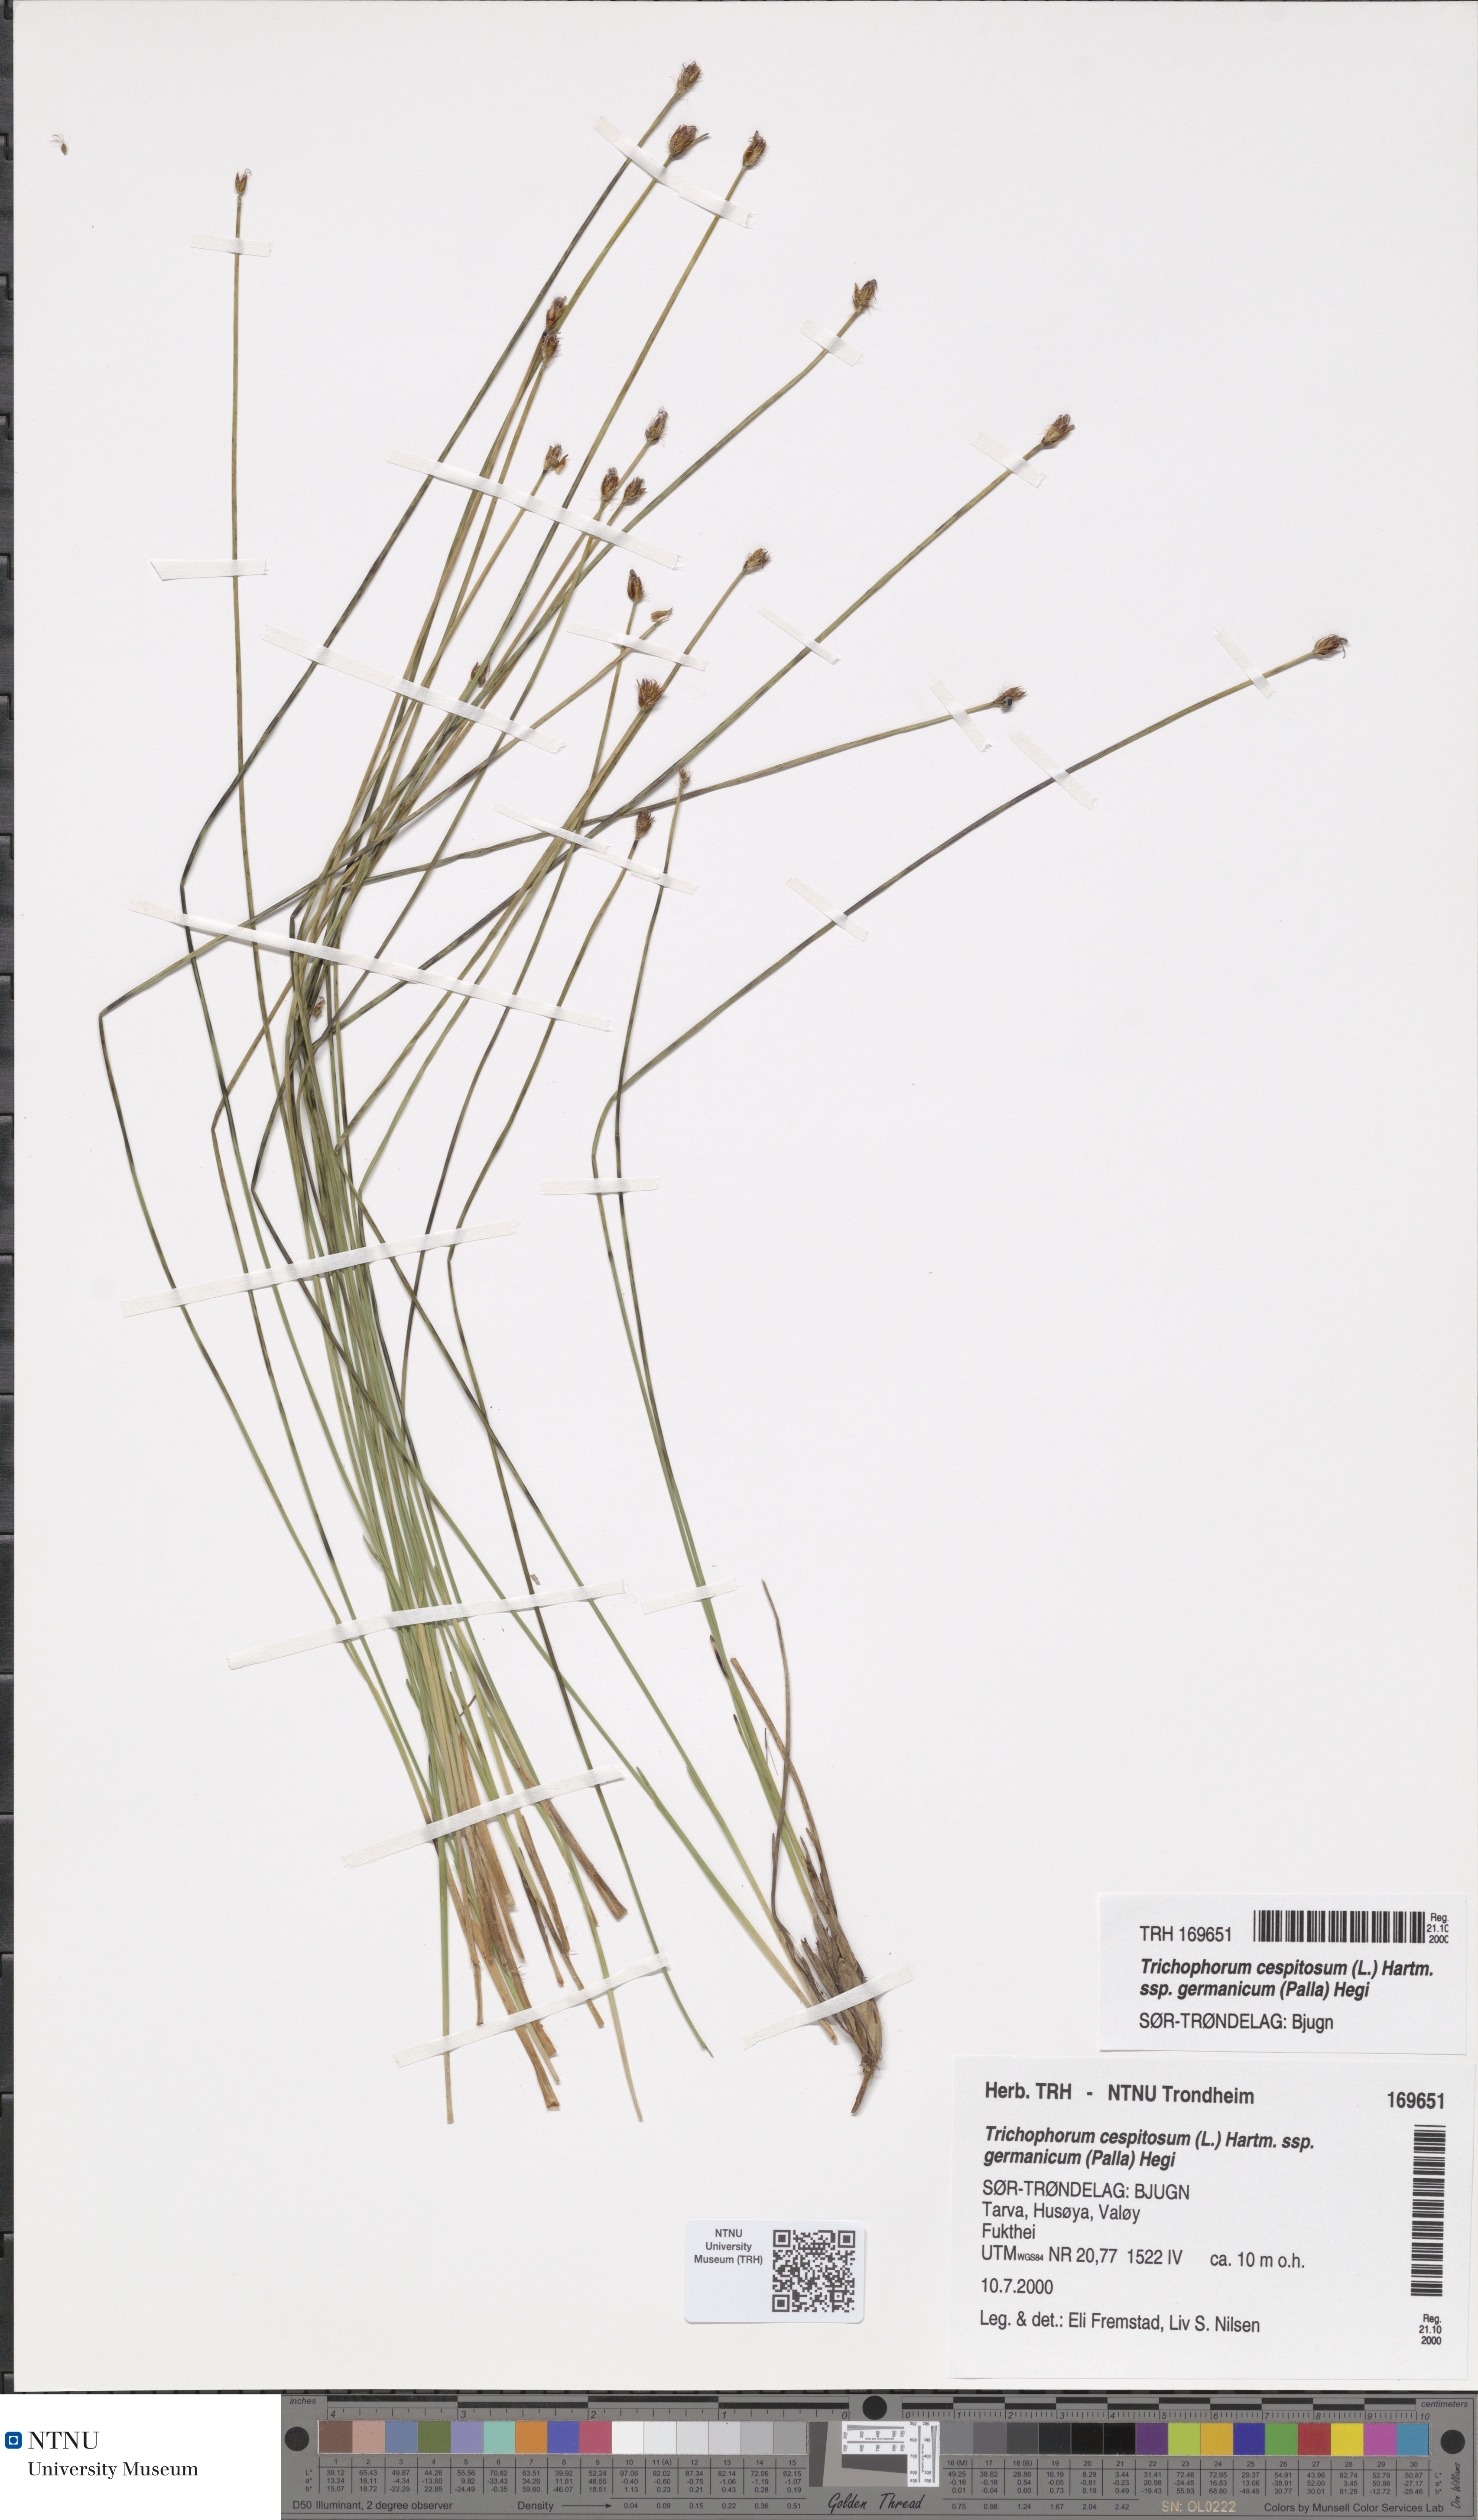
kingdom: Plantae
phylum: Tracheophyta
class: Liliopsida
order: Poales
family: Cyperaceae
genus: Trichophorum
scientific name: Trichophorum cespitosum
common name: Cespitose bulrush
